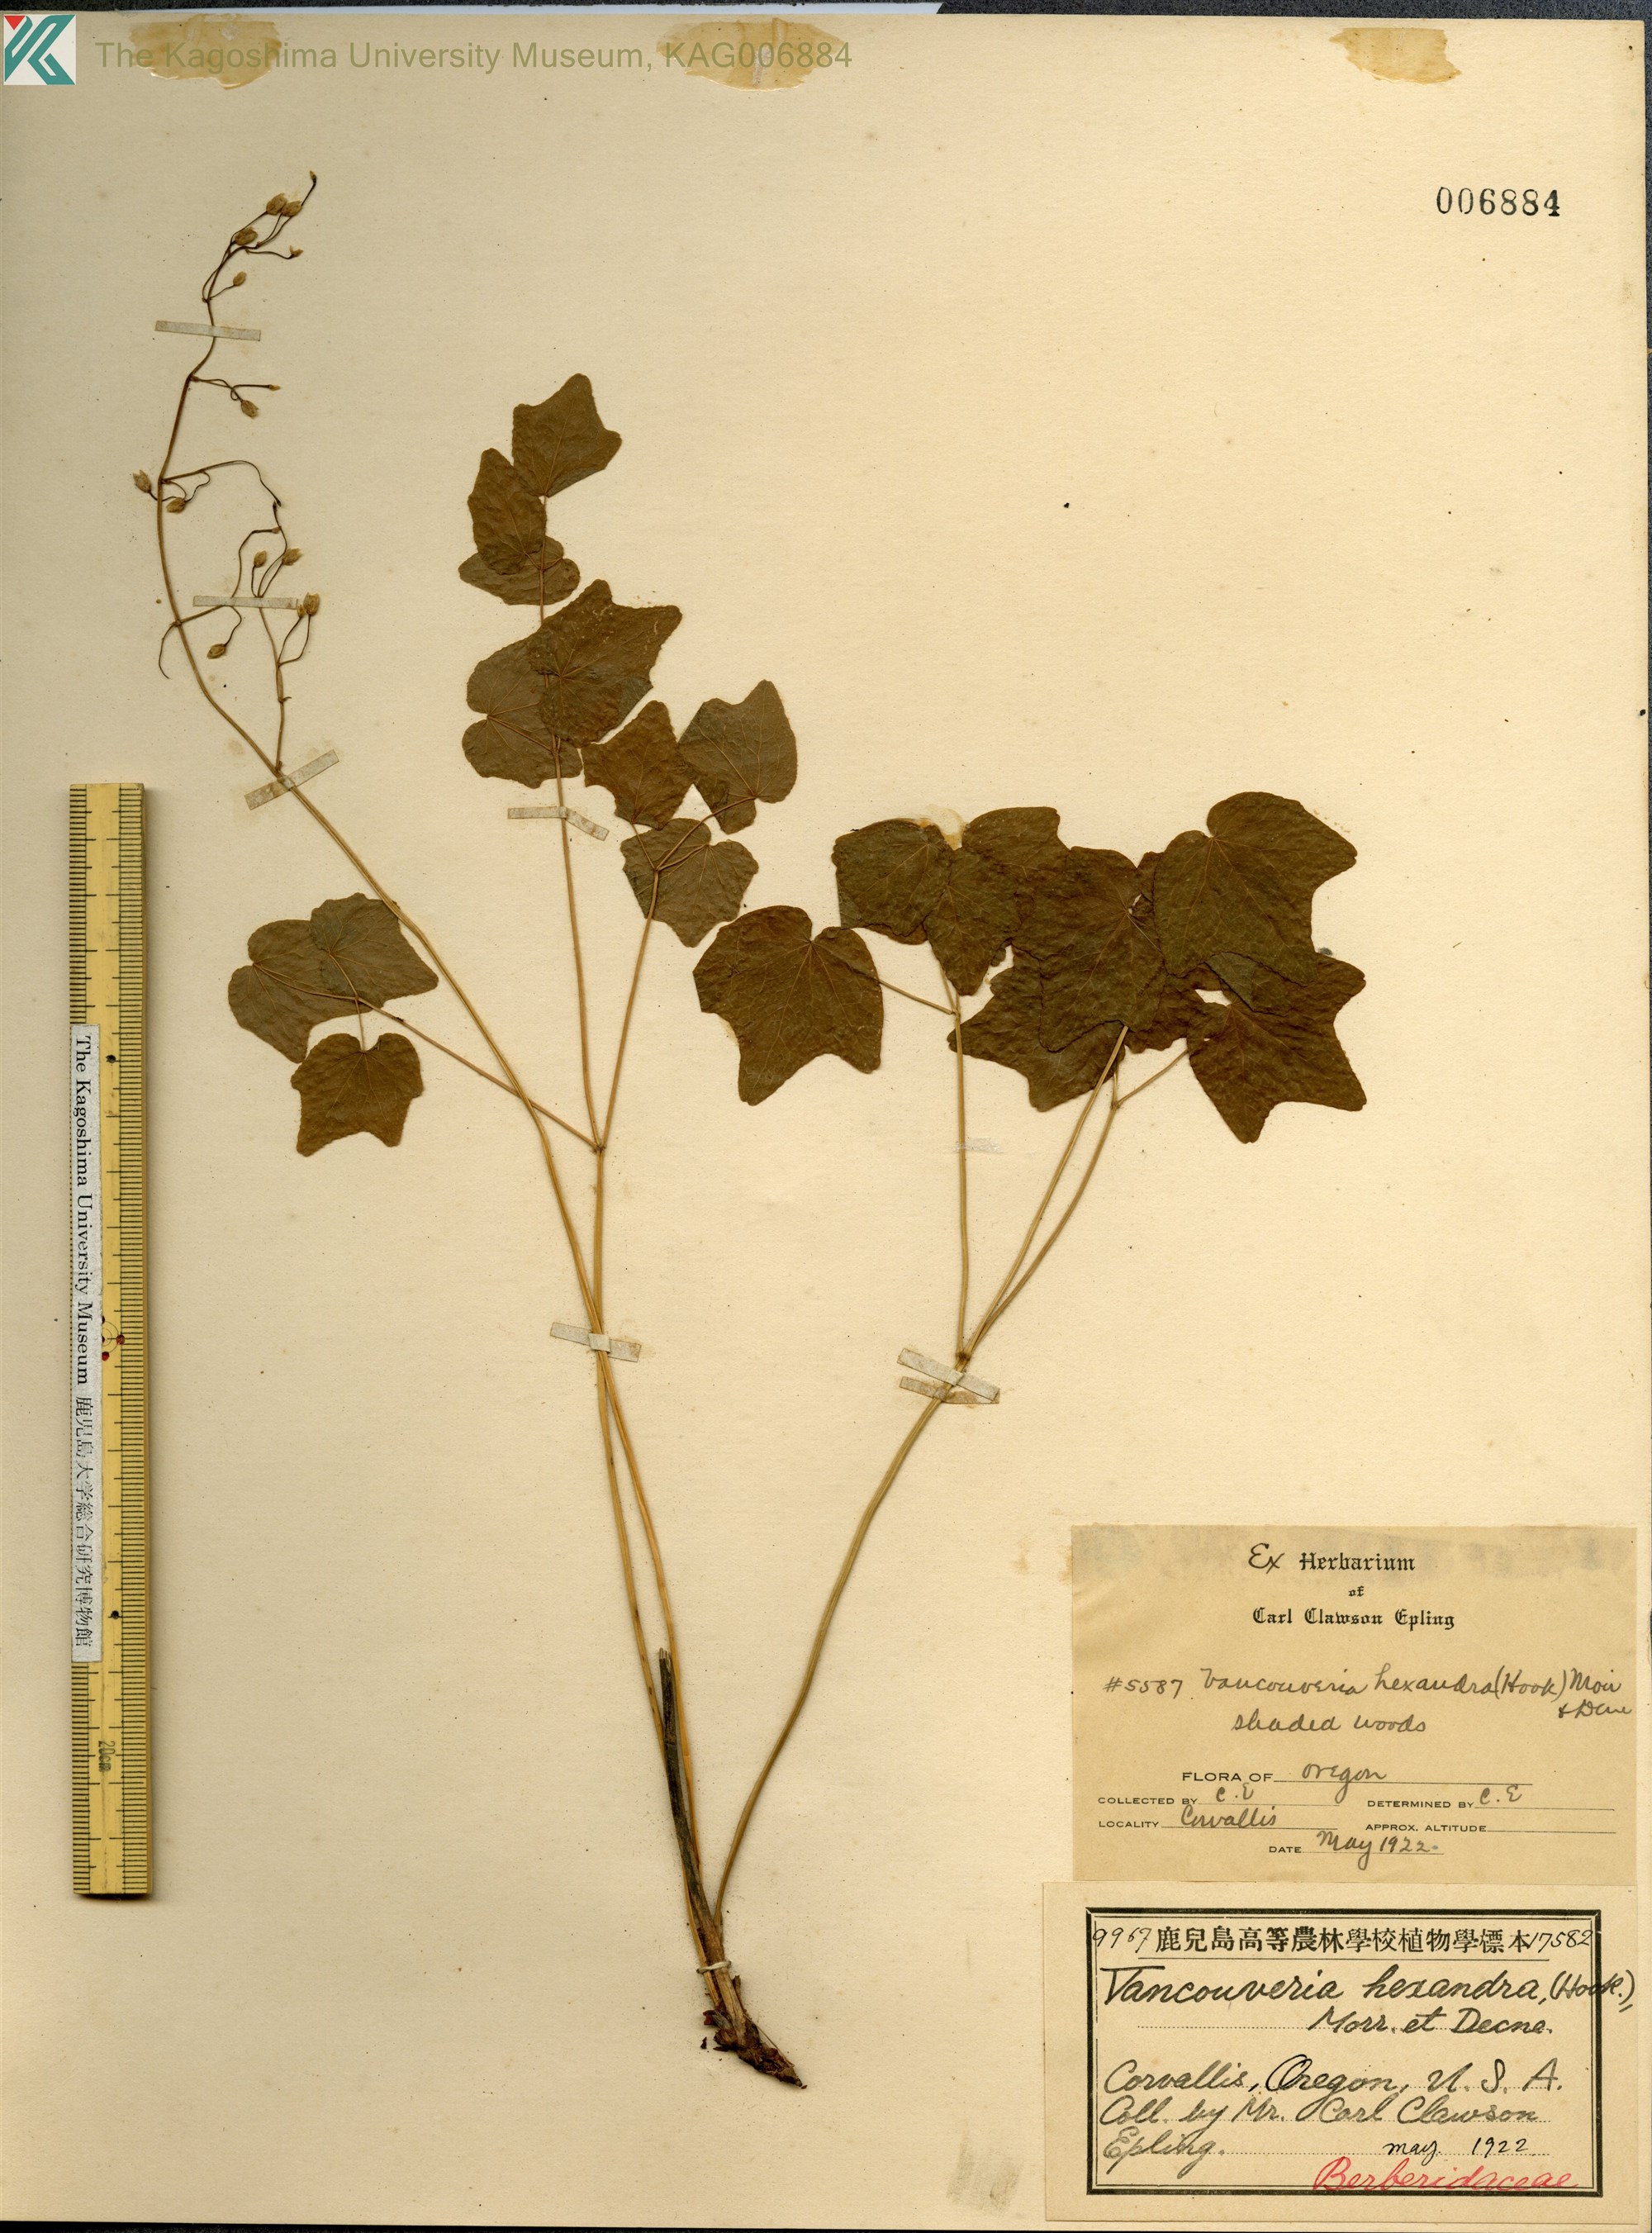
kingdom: Plantae
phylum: Tracheophyta
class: Magnoliopsida
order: Ranunculales
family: Berberidaceae
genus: Vancouveria
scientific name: Vancouveria hexandra
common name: Northern inside-out-flower
